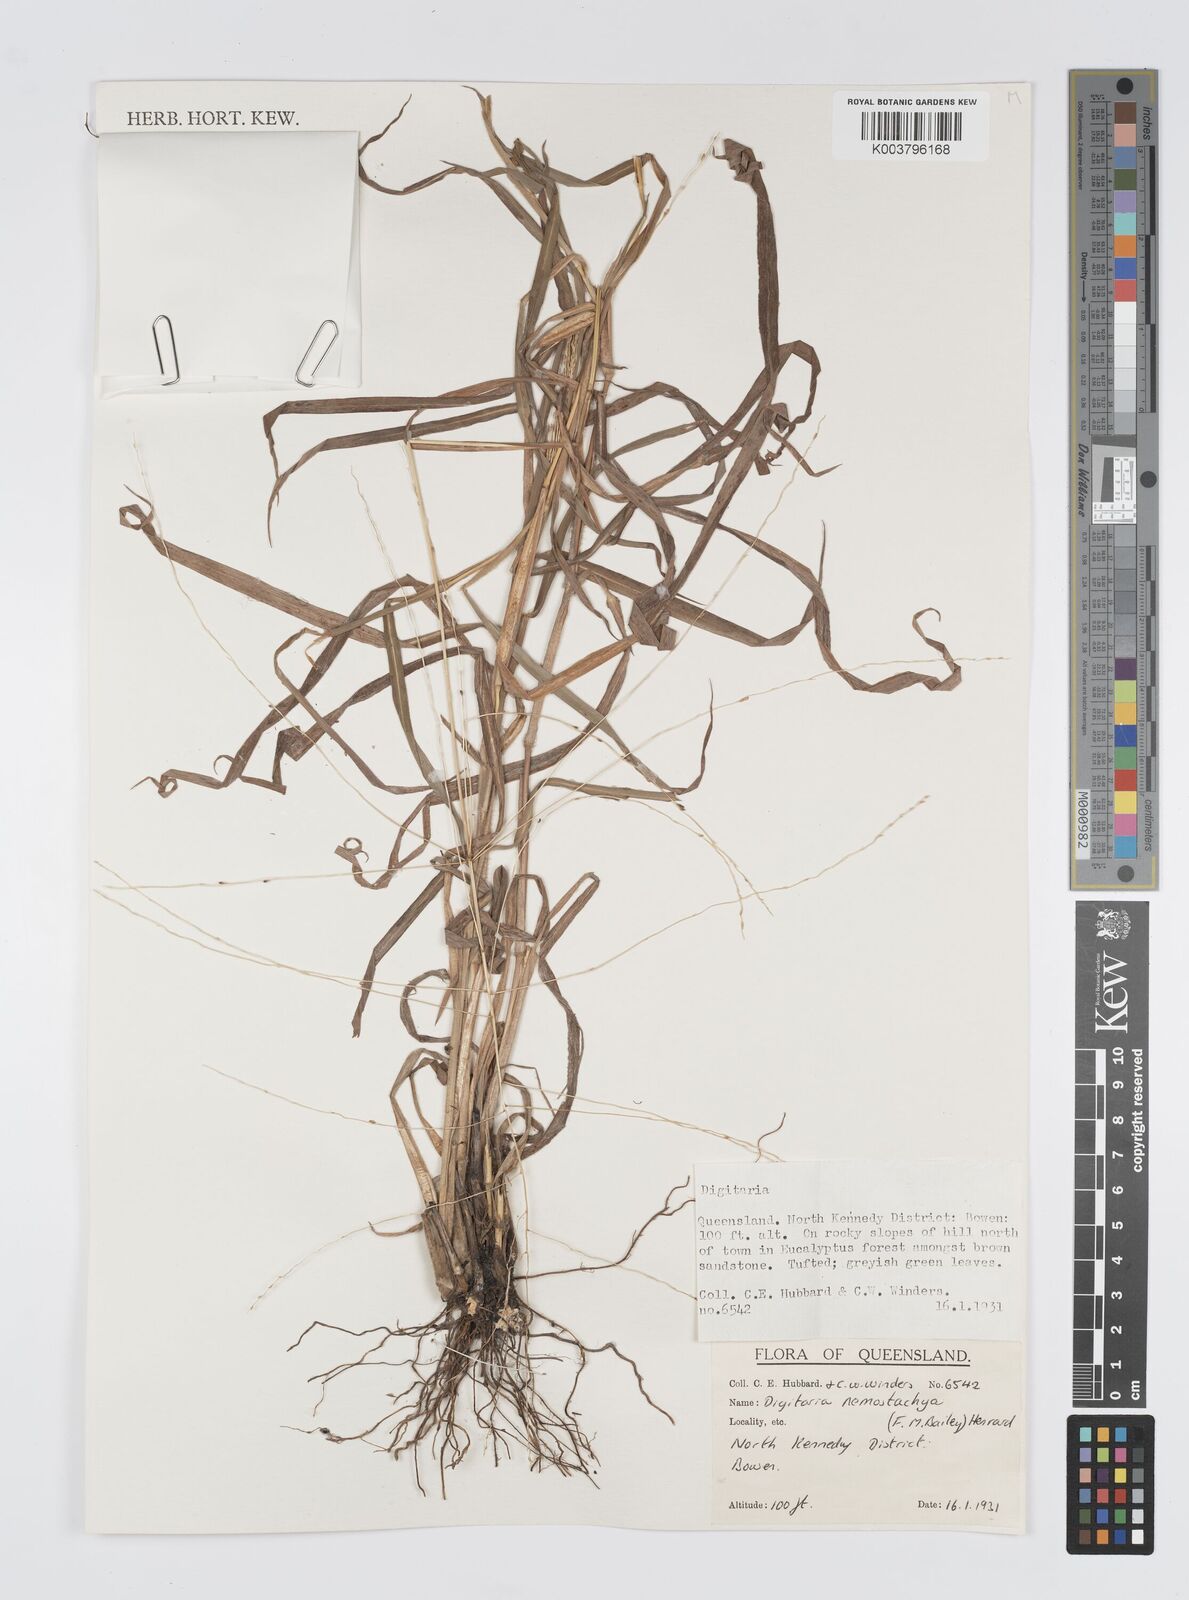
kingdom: Plantae
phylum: Tracheophyta
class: Liliopsida
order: Poales
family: Poaceae
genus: Digitaria
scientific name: Digitaria nematostachya
